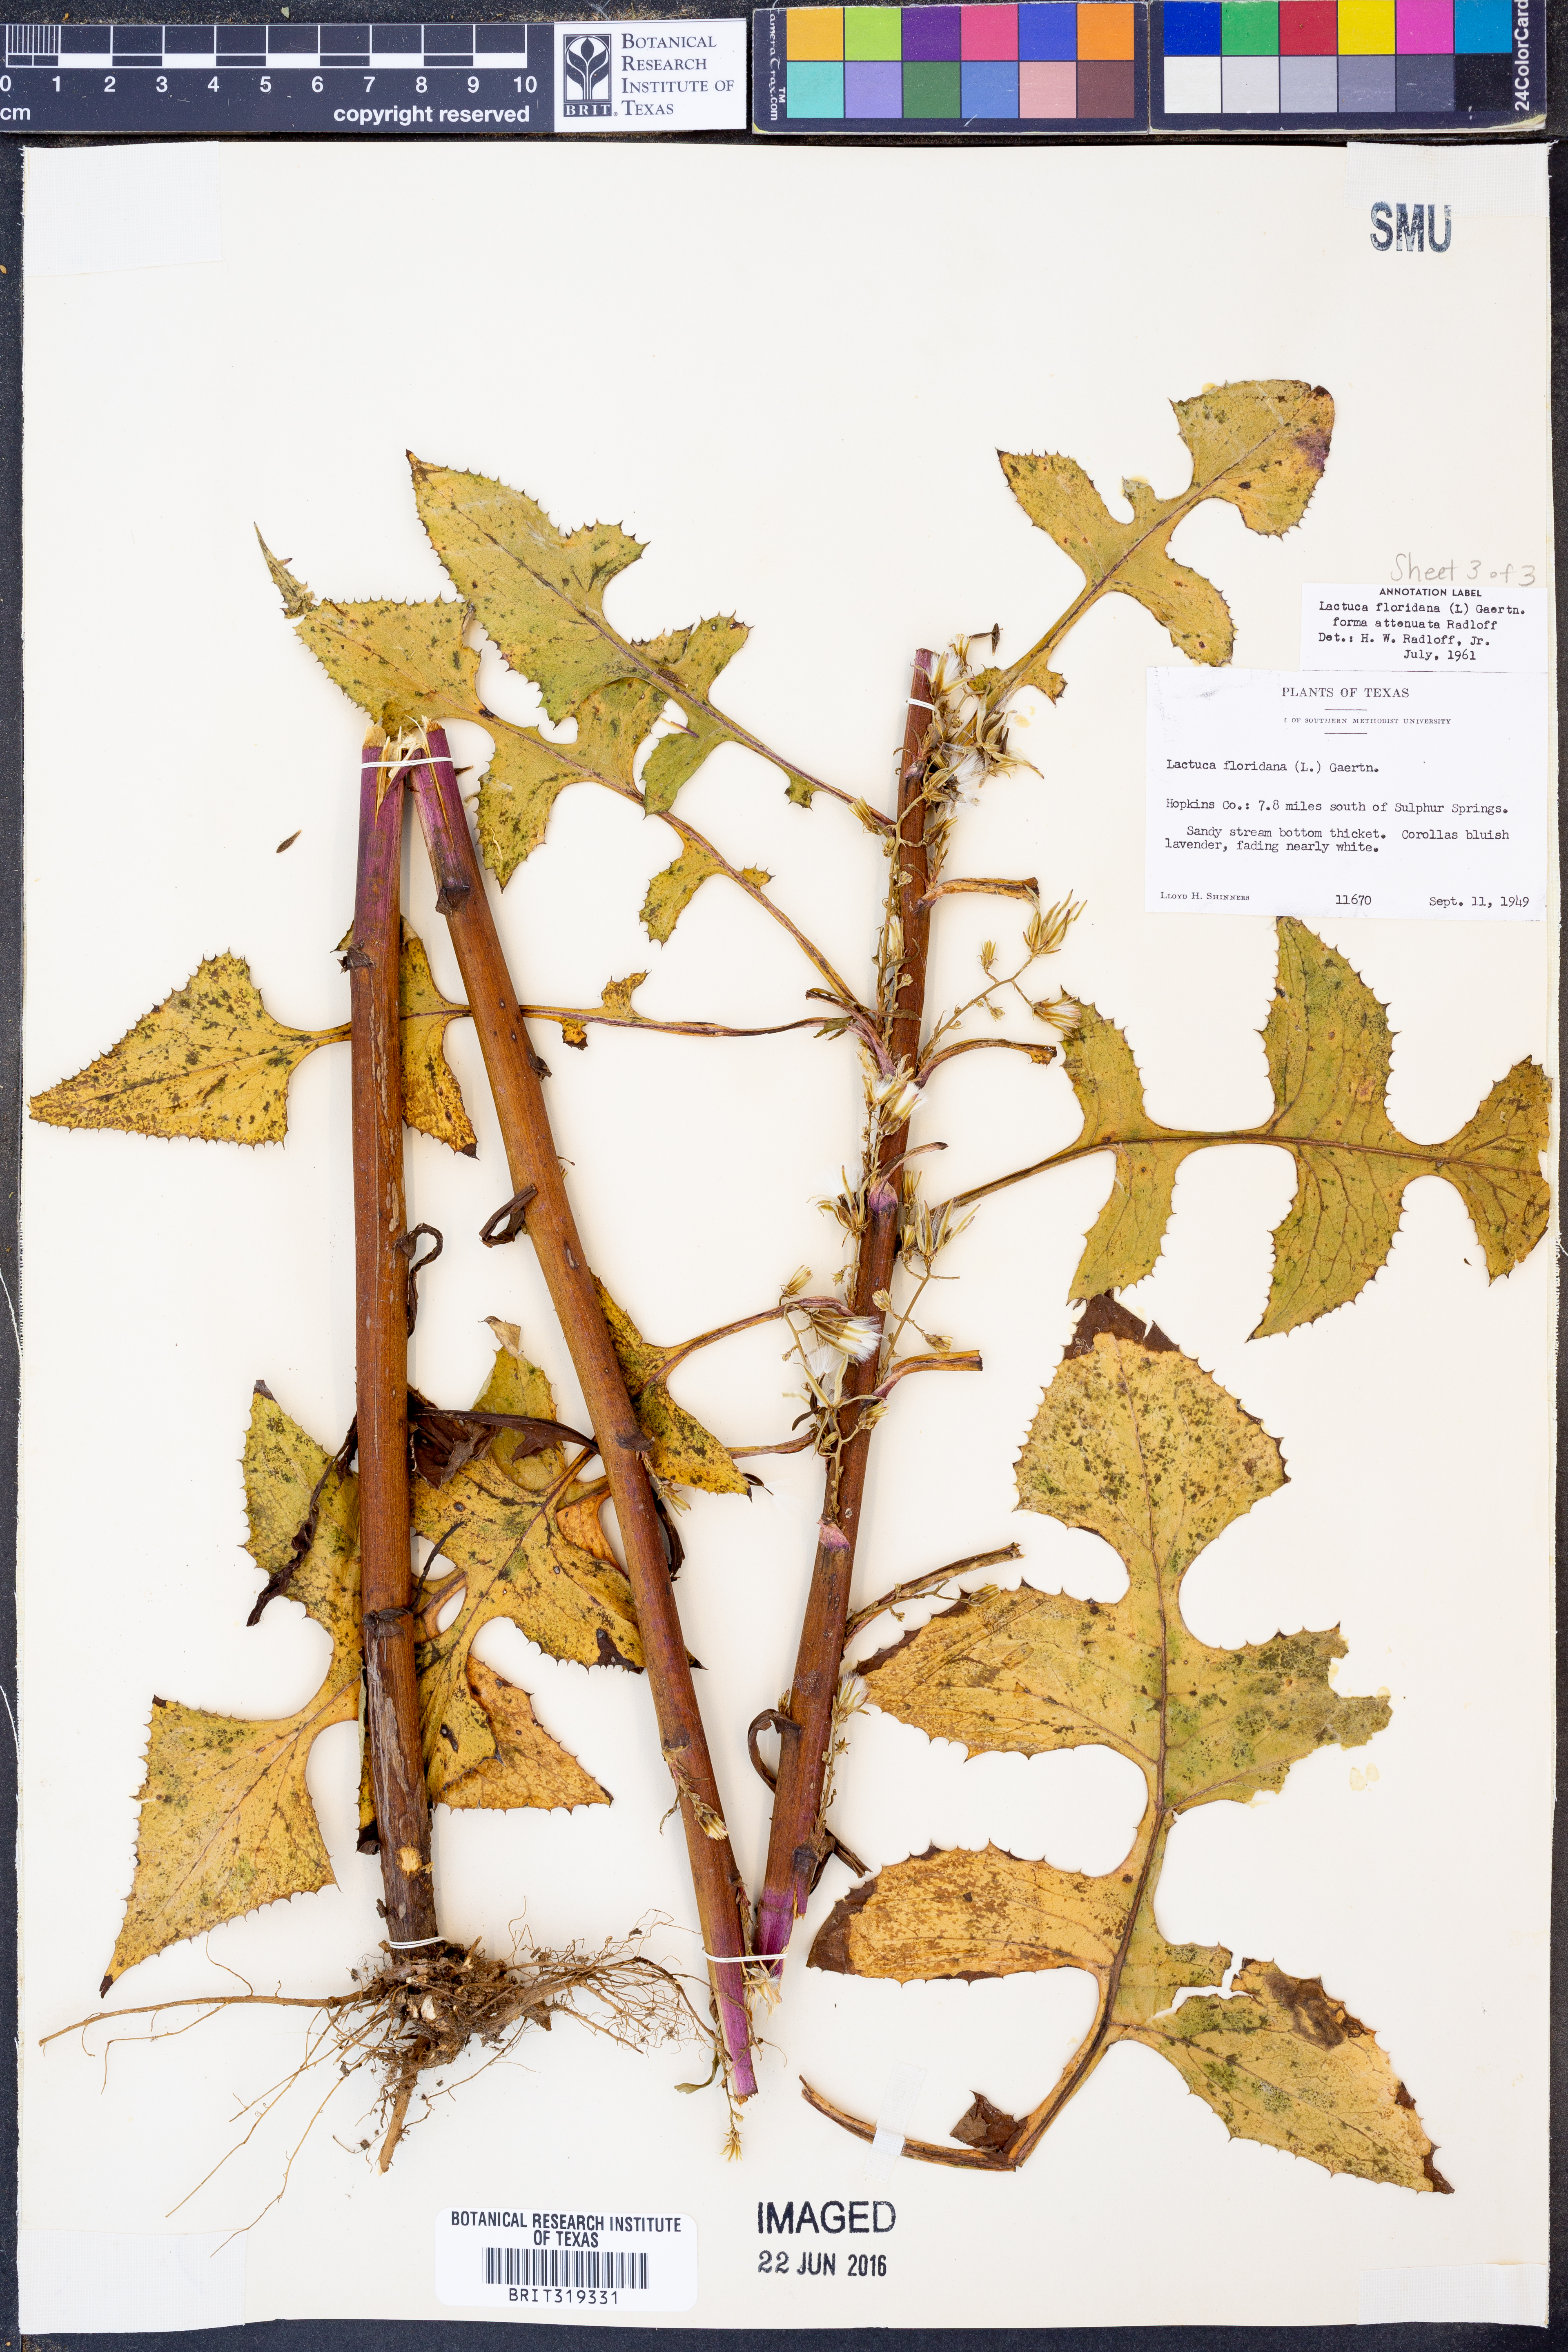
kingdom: Plantae
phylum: Tracheophyta
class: Magnoliopsida
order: Asterales
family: Asteraceae
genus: Lactuca
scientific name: Lactuca floridana
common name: Woodland lettuce
